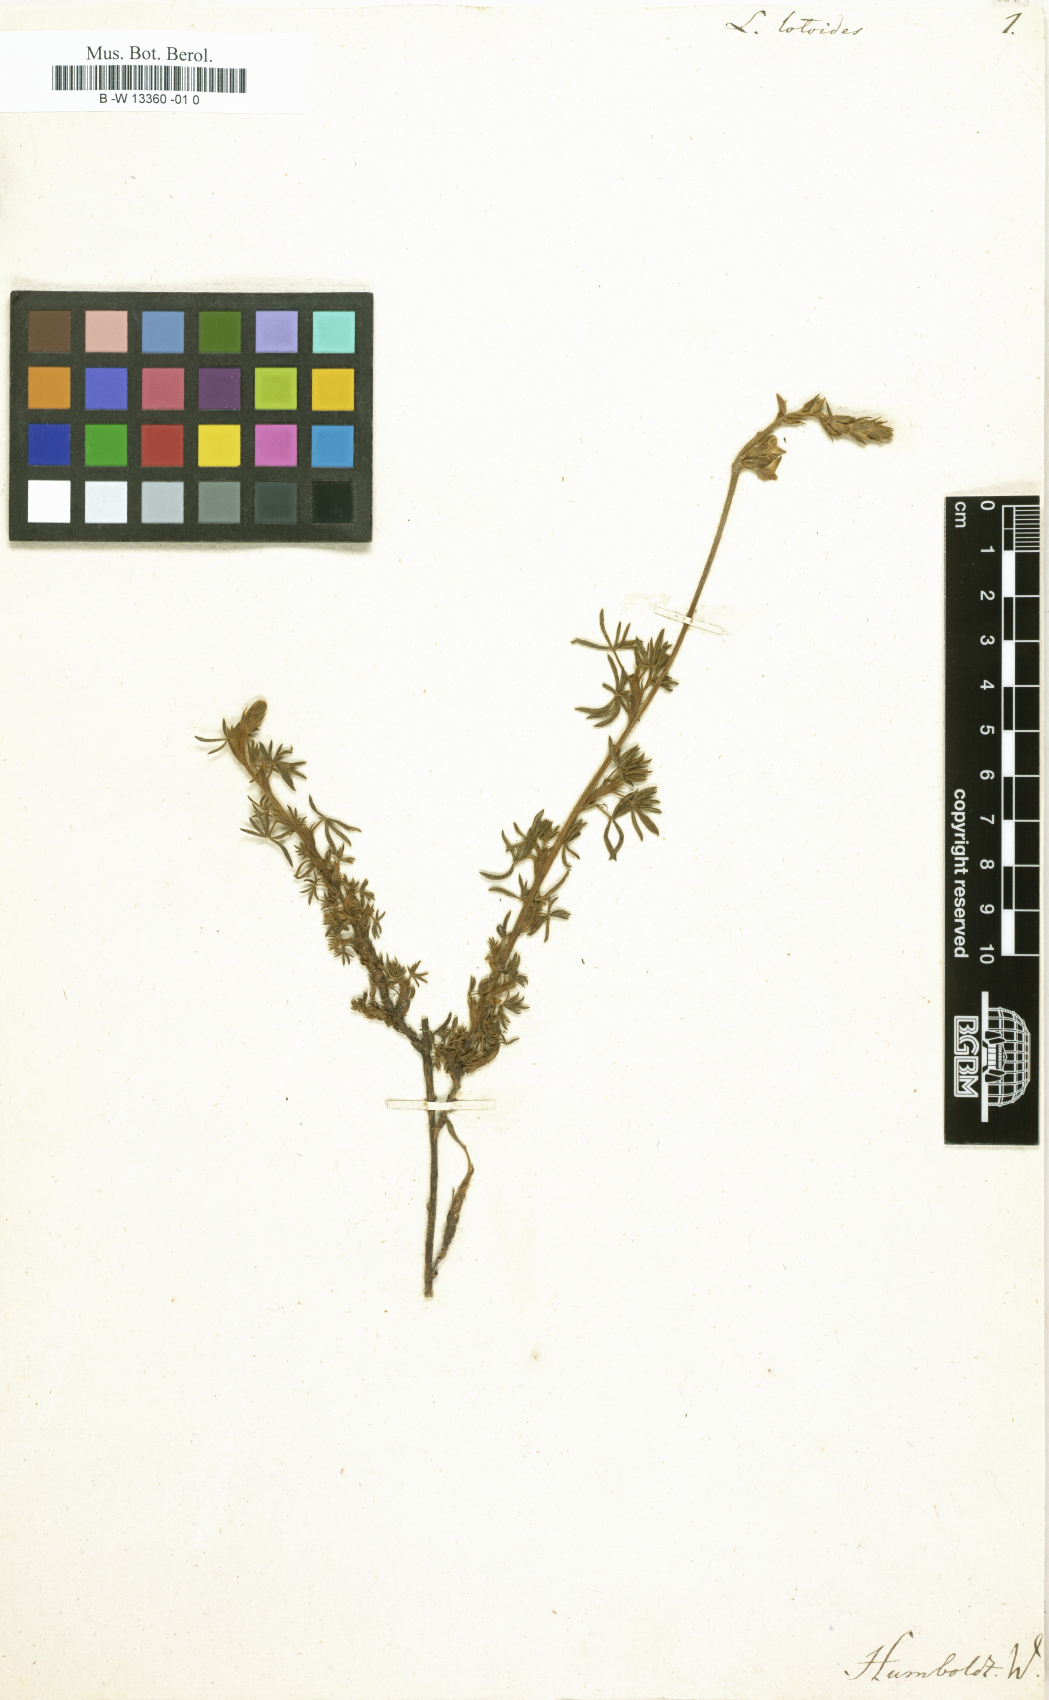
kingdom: Plantae
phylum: Tracheophyta
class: Magnoliopsida
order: Fabales
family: Fabaceae
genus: Lupinus
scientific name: Lupinus
